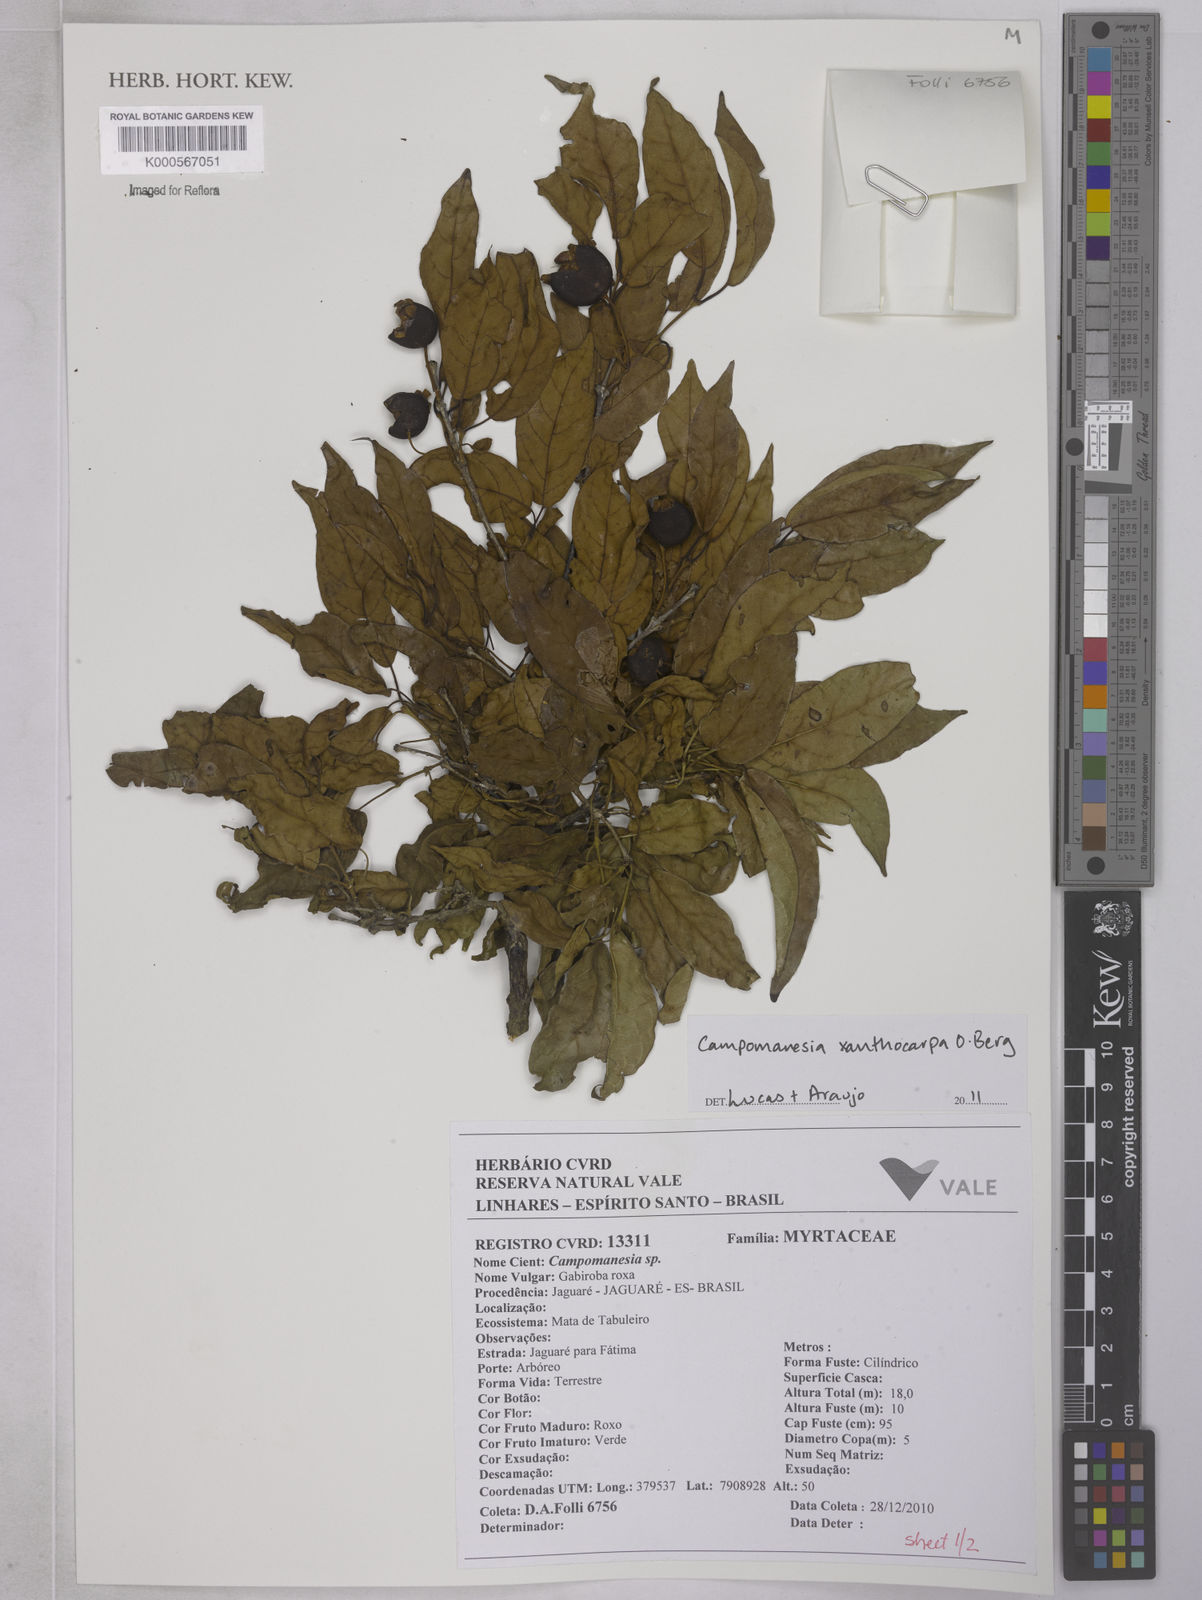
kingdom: Plantae
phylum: Tracheophyta
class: Magnoliopsida
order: Myrtales
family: Myrtaceae
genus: Campomanesia
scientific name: Campomanesia xanthocarpa
